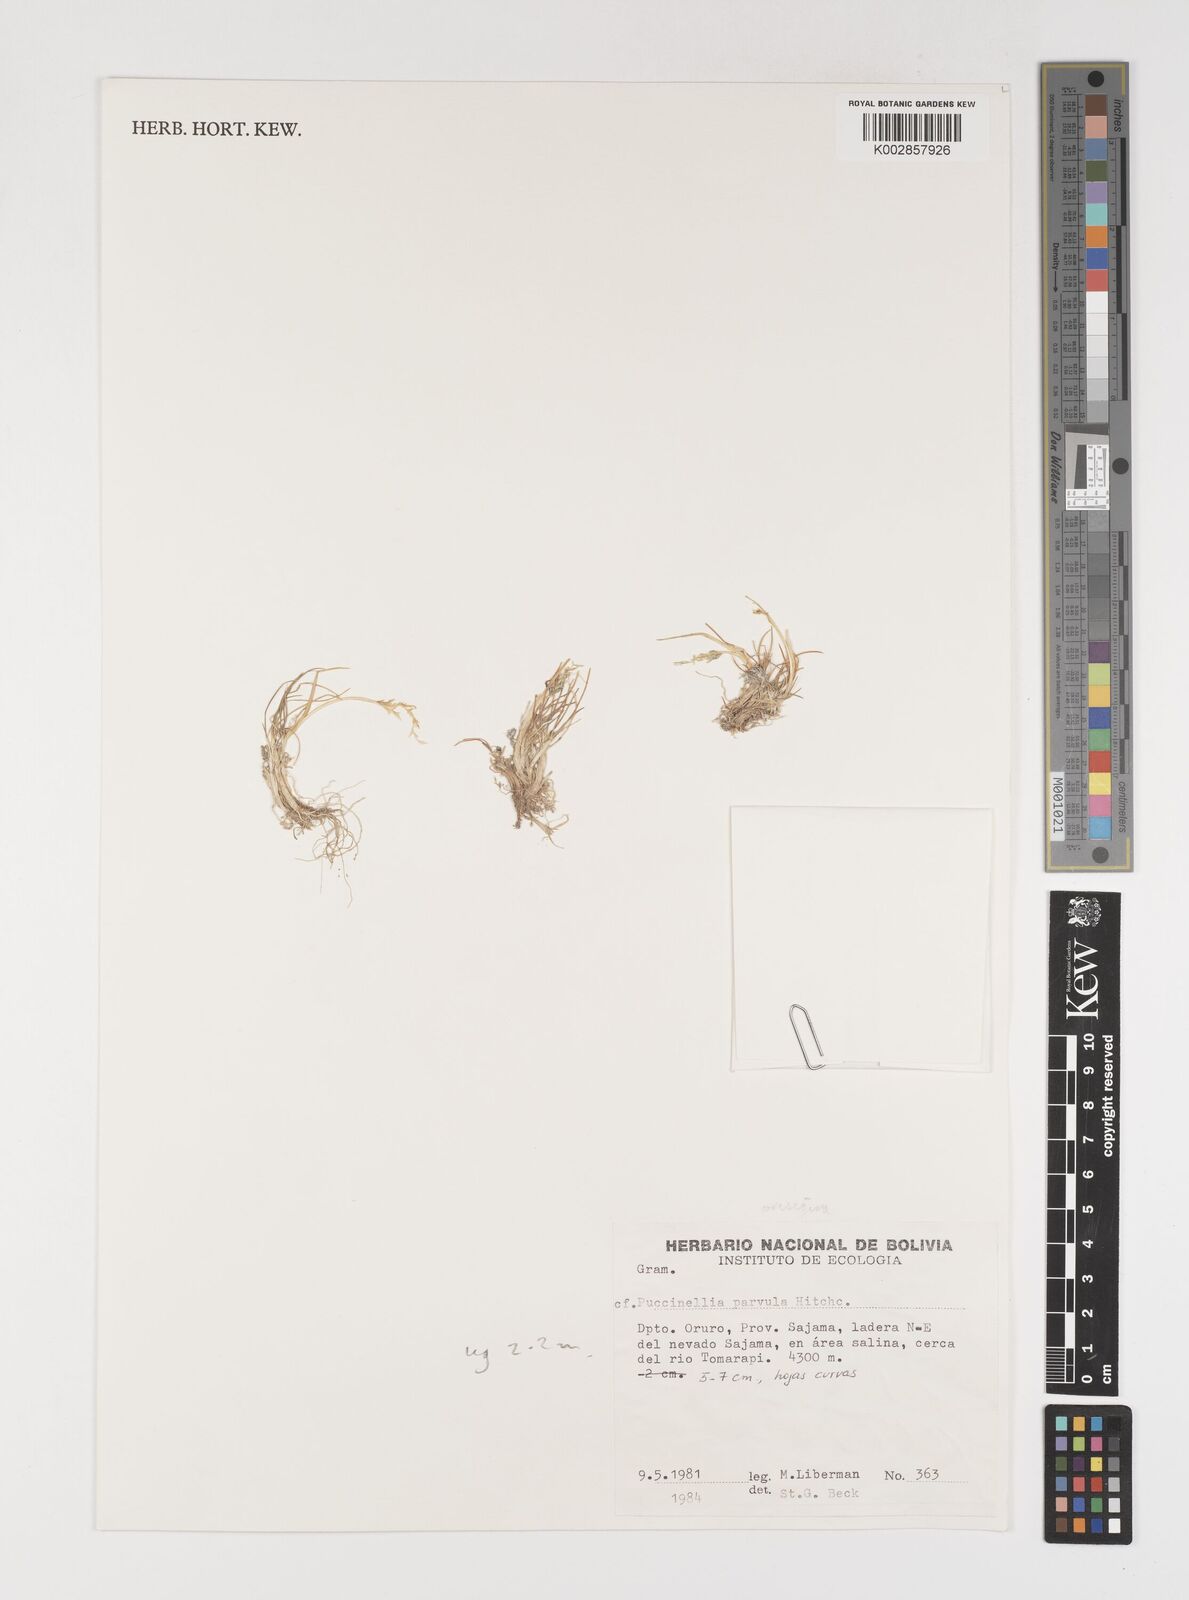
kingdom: Plantae
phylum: Tracheophyta
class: Liliopsida
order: Poales
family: Poaceae
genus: Puccinellia
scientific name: Puccinellia frigida
